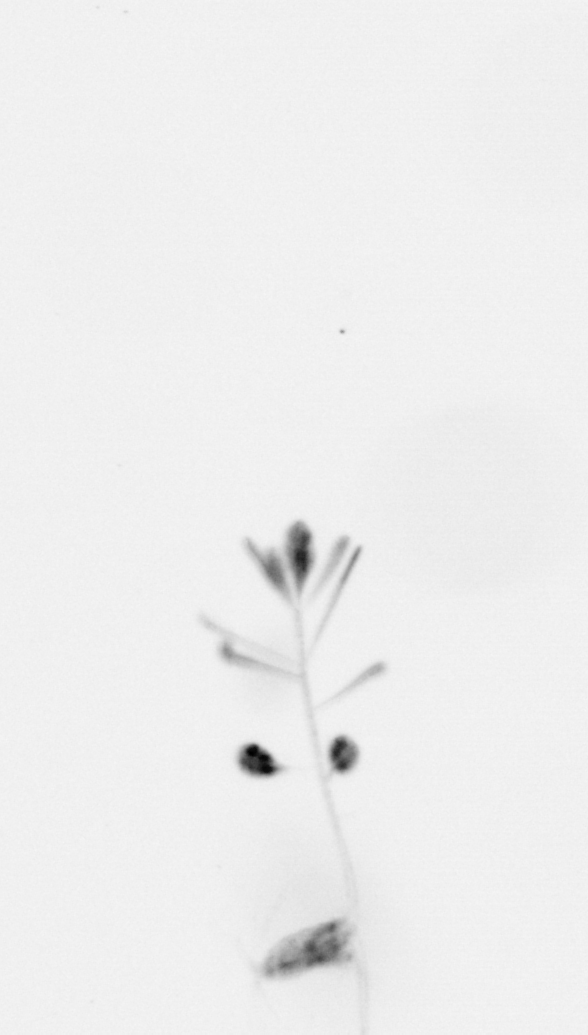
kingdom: Chromista
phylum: Ochrophyta
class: Bacillariophyceae
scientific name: Bacillariophyceae
